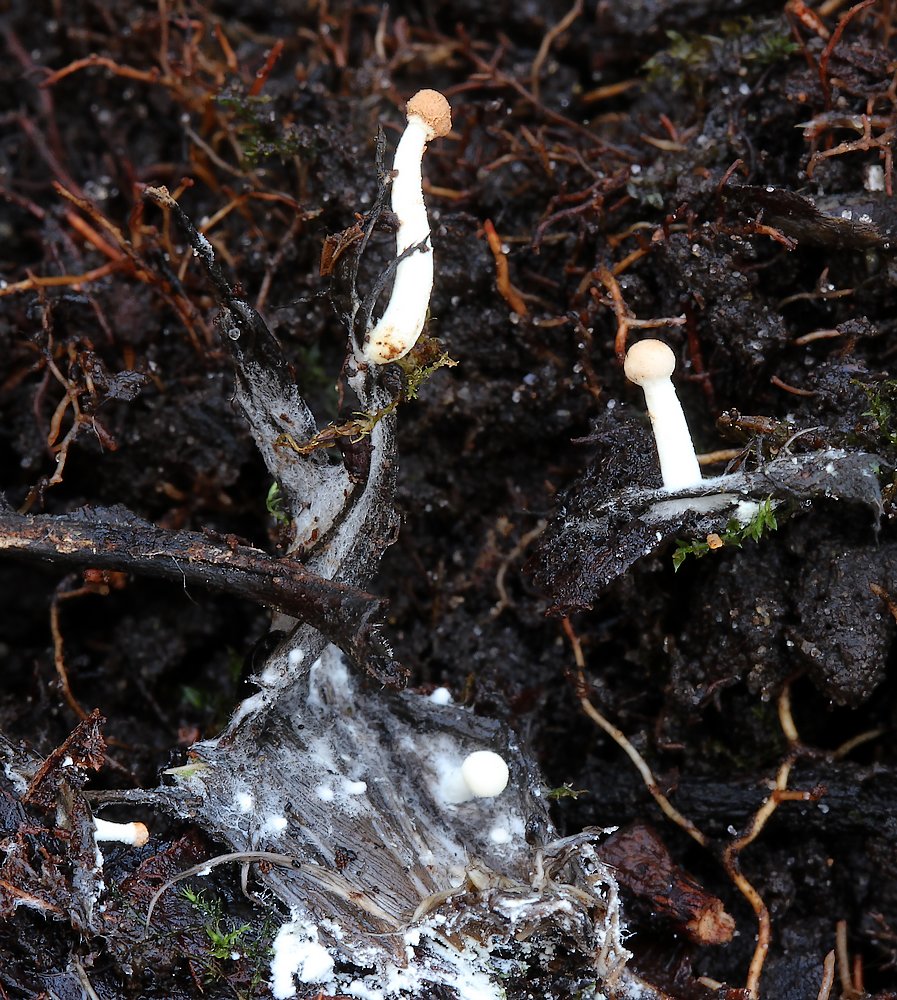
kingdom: Fungi
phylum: Ascomycota
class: Eurotiomycetes
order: Onygenales
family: Onygenaceae
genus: Onygena
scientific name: Onygena corvina
